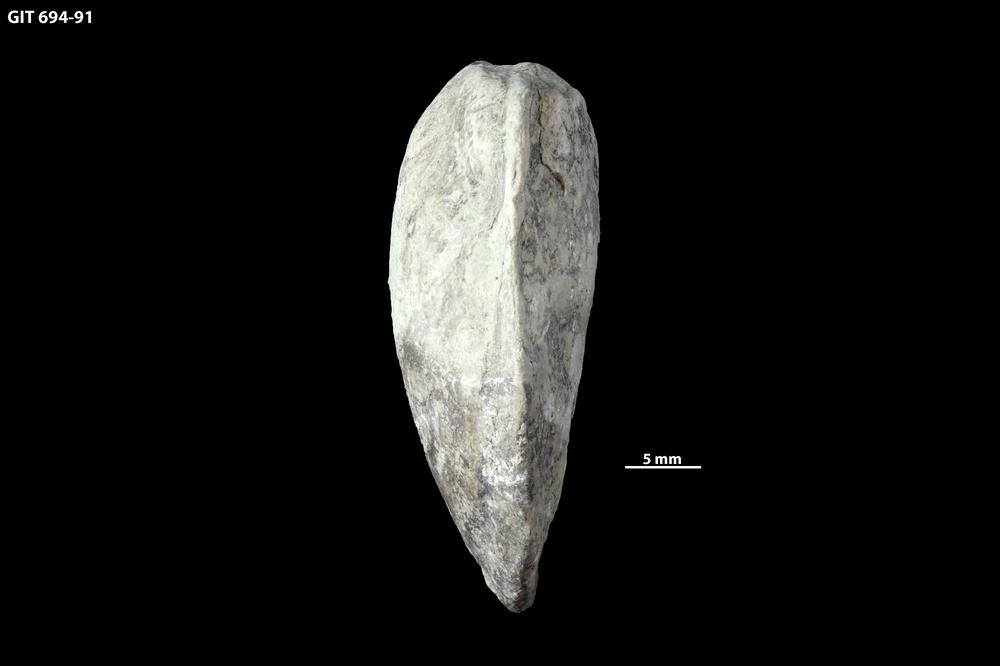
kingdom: Animalia
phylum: Mollusca
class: Bivalvia
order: Modiomorphida
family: Modiomorphidae
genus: Aristerella
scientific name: Aristerella
